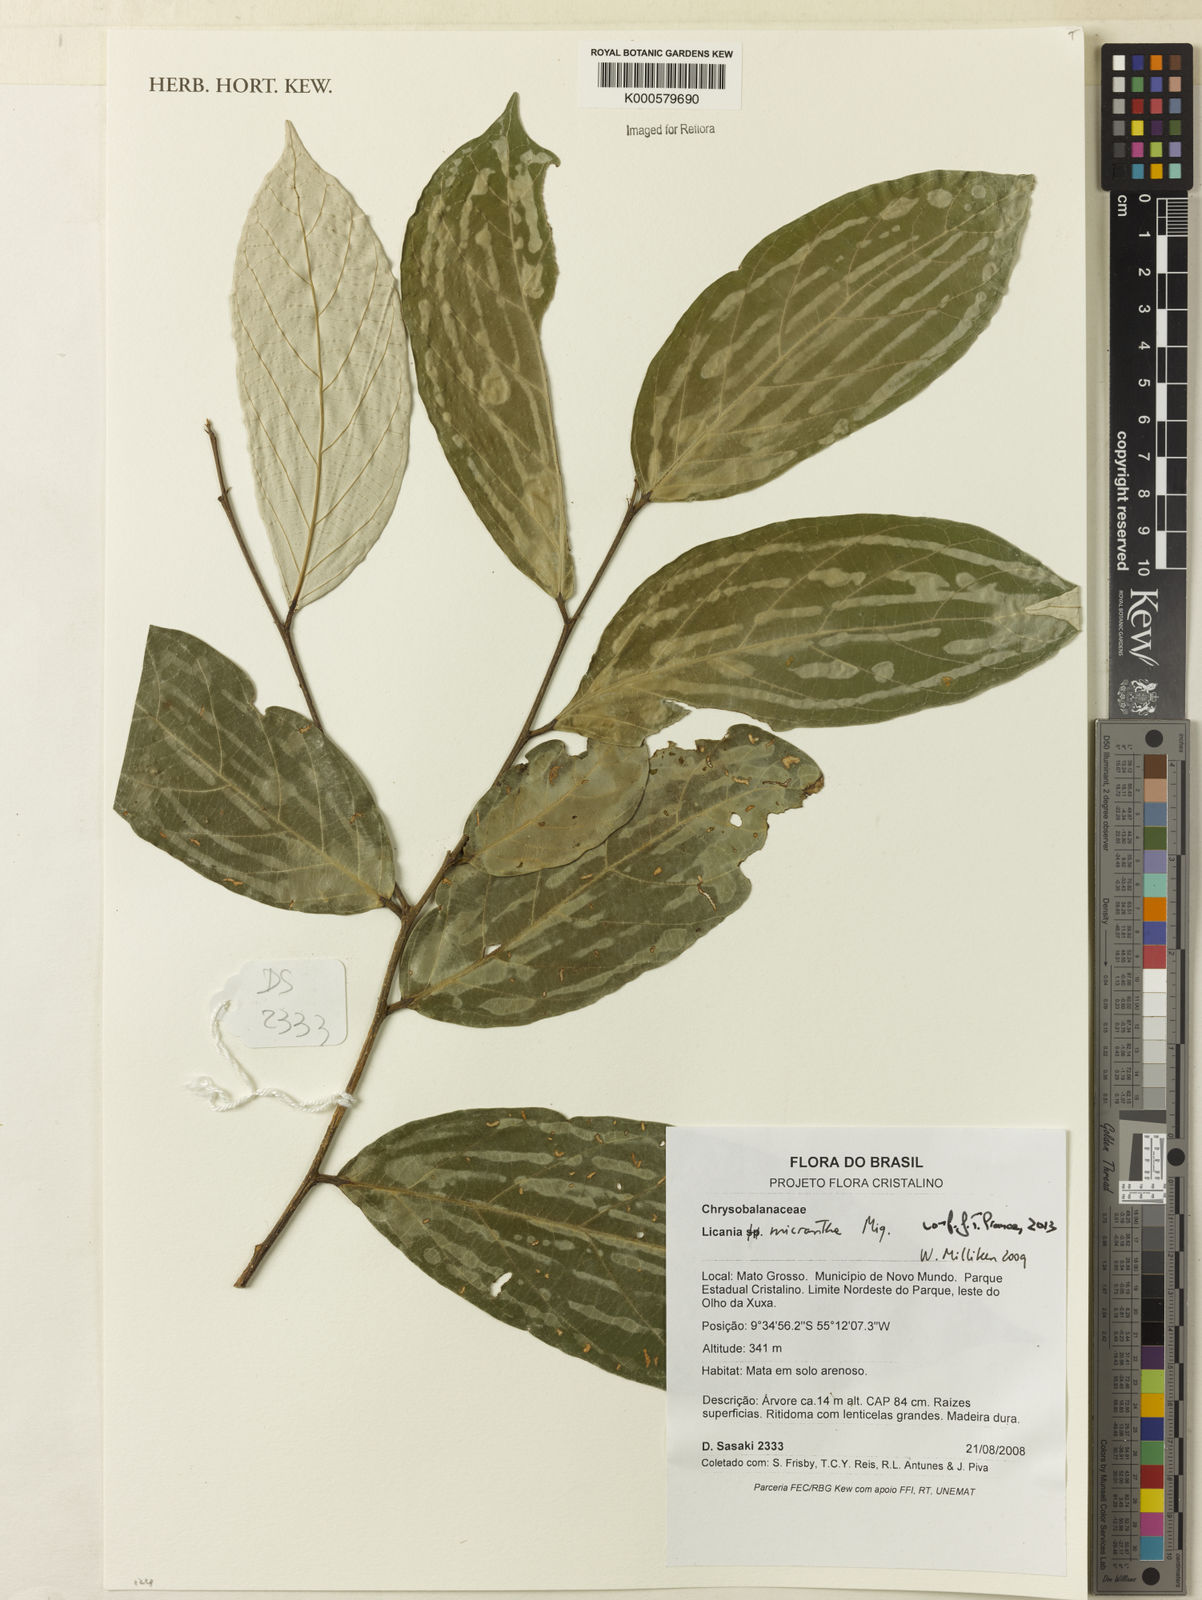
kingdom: Plantae
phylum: Tracheophyta
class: Magnoliopsida
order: Malpighiales
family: Chrysobalanaceae
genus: Licania
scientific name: Licania micrantha
